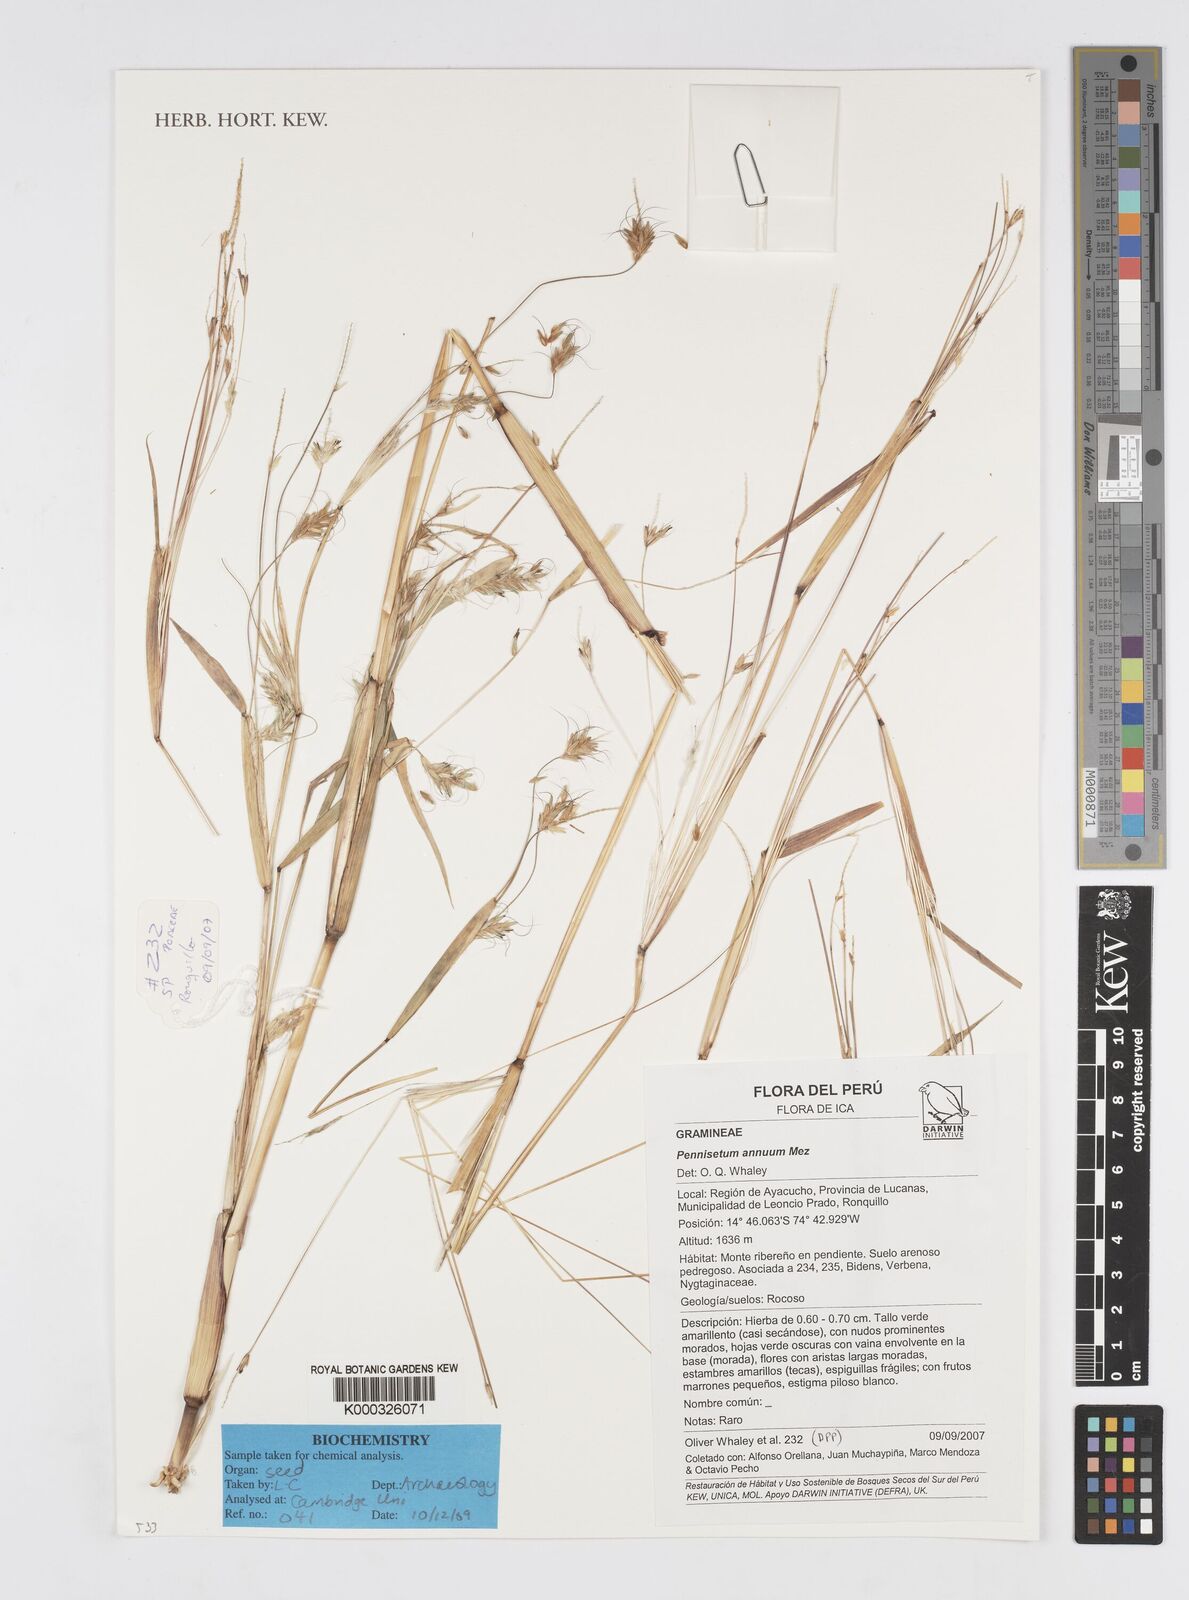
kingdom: Plantae
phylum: Tracheophyta
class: Liliopsida
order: Poales
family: Poaceae
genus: Cenchrus
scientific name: Cenchrus annuus
